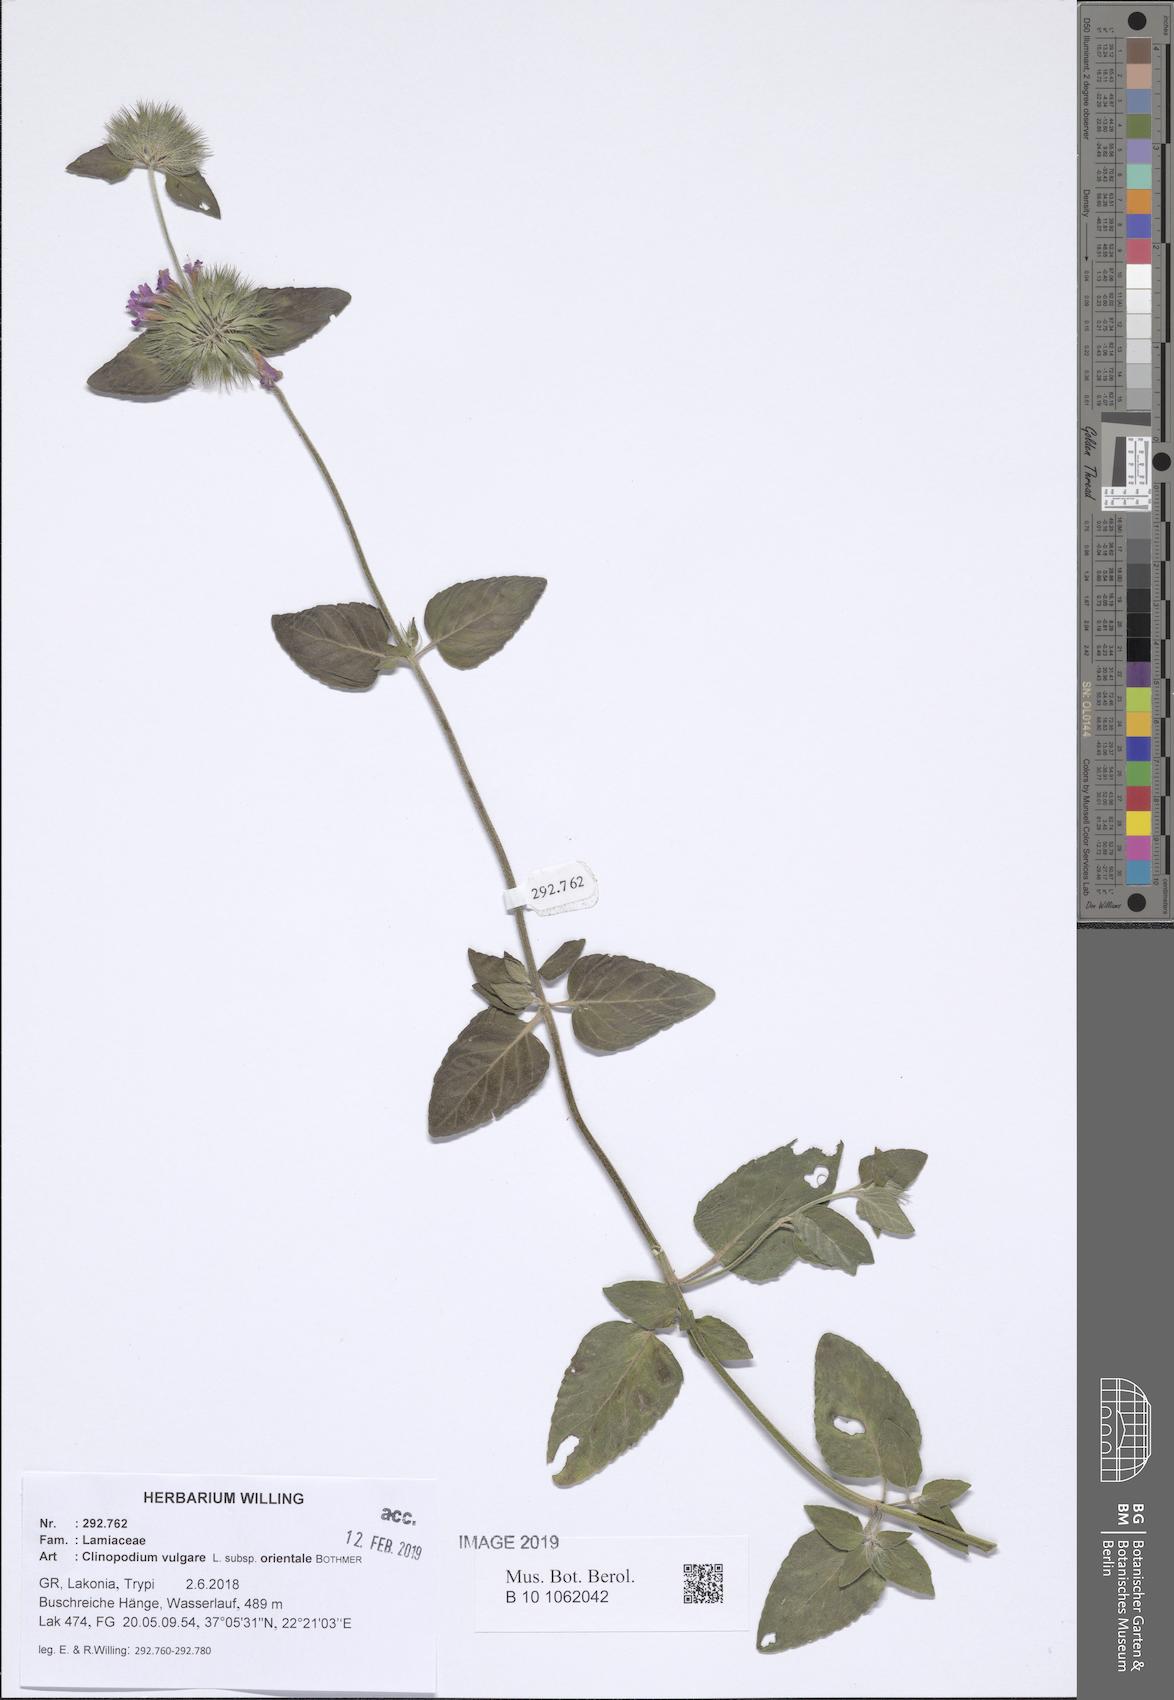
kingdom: Plantae
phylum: Tracheophyta
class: Magnoliopsida
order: Lamiales
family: Lamiaceae
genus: Clinopodium
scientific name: Clinopodium vulgare
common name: Wild basil
